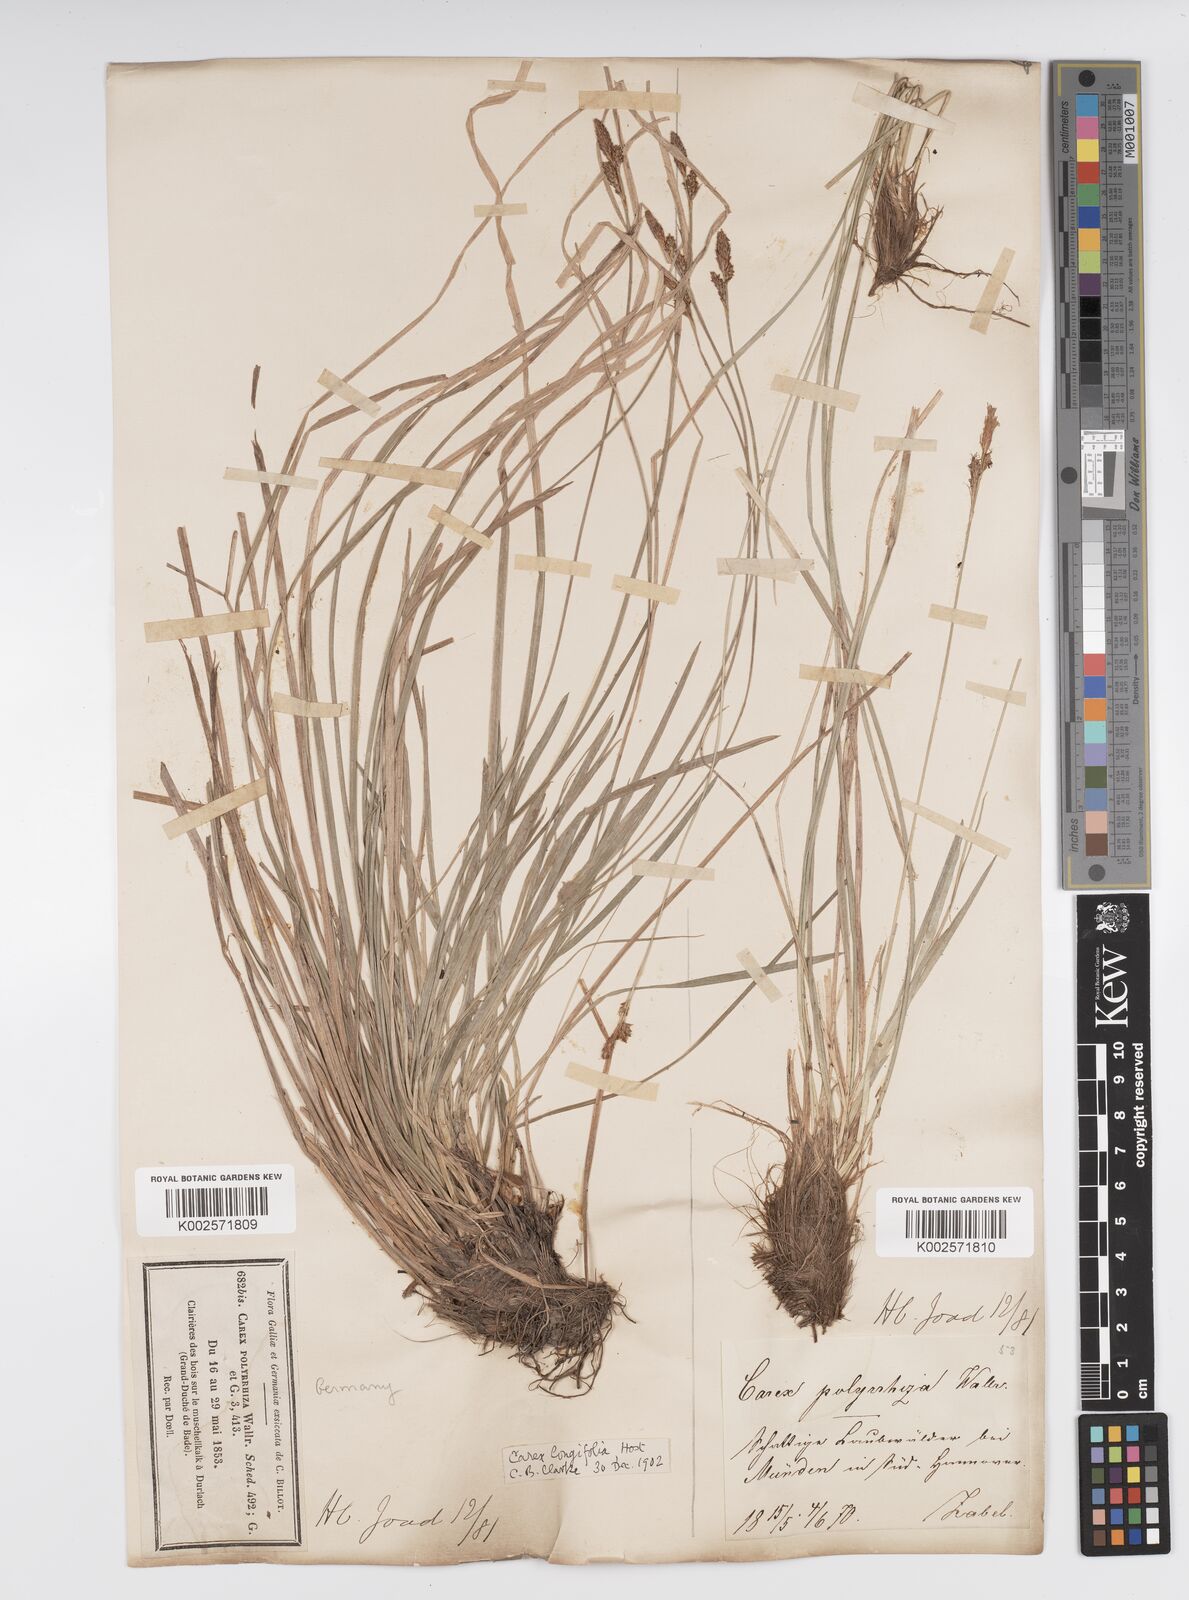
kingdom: Plantae
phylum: Tracheophyta
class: Liliopsida
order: Poales
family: Cyperaceae
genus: Carex
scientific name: Carex umbrosa
